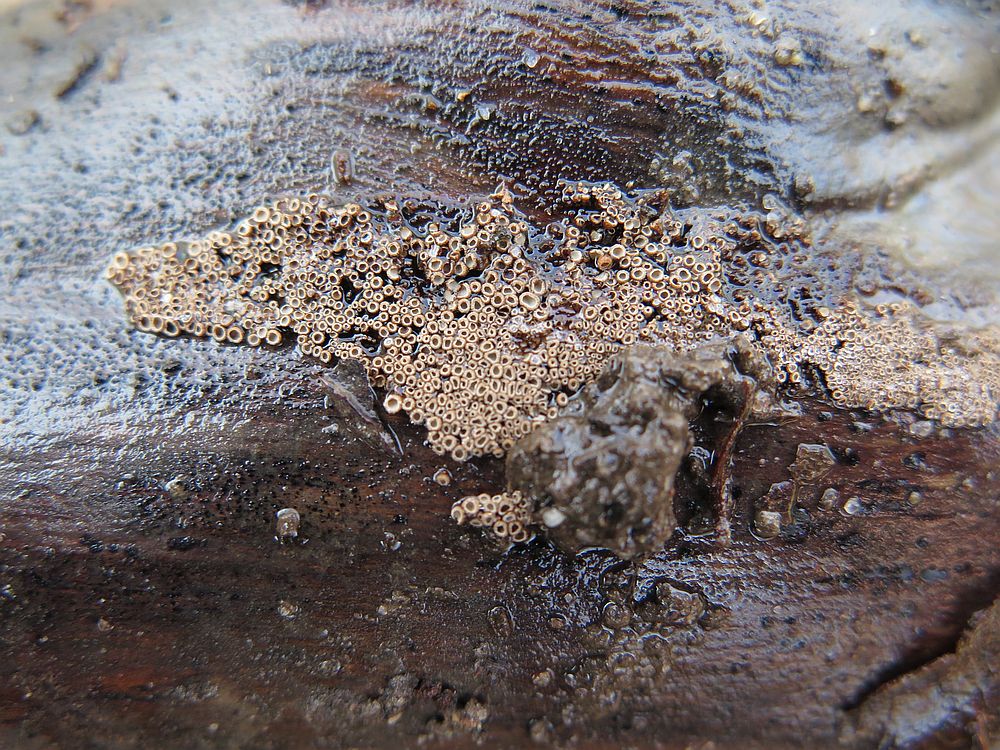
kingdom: Fungi
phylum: Basidiomycota
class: Agaricomycetes
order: Agaricales
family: Niaceae
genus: Merismodes
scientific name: Merismodes anomala
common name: almindelig læderskål
